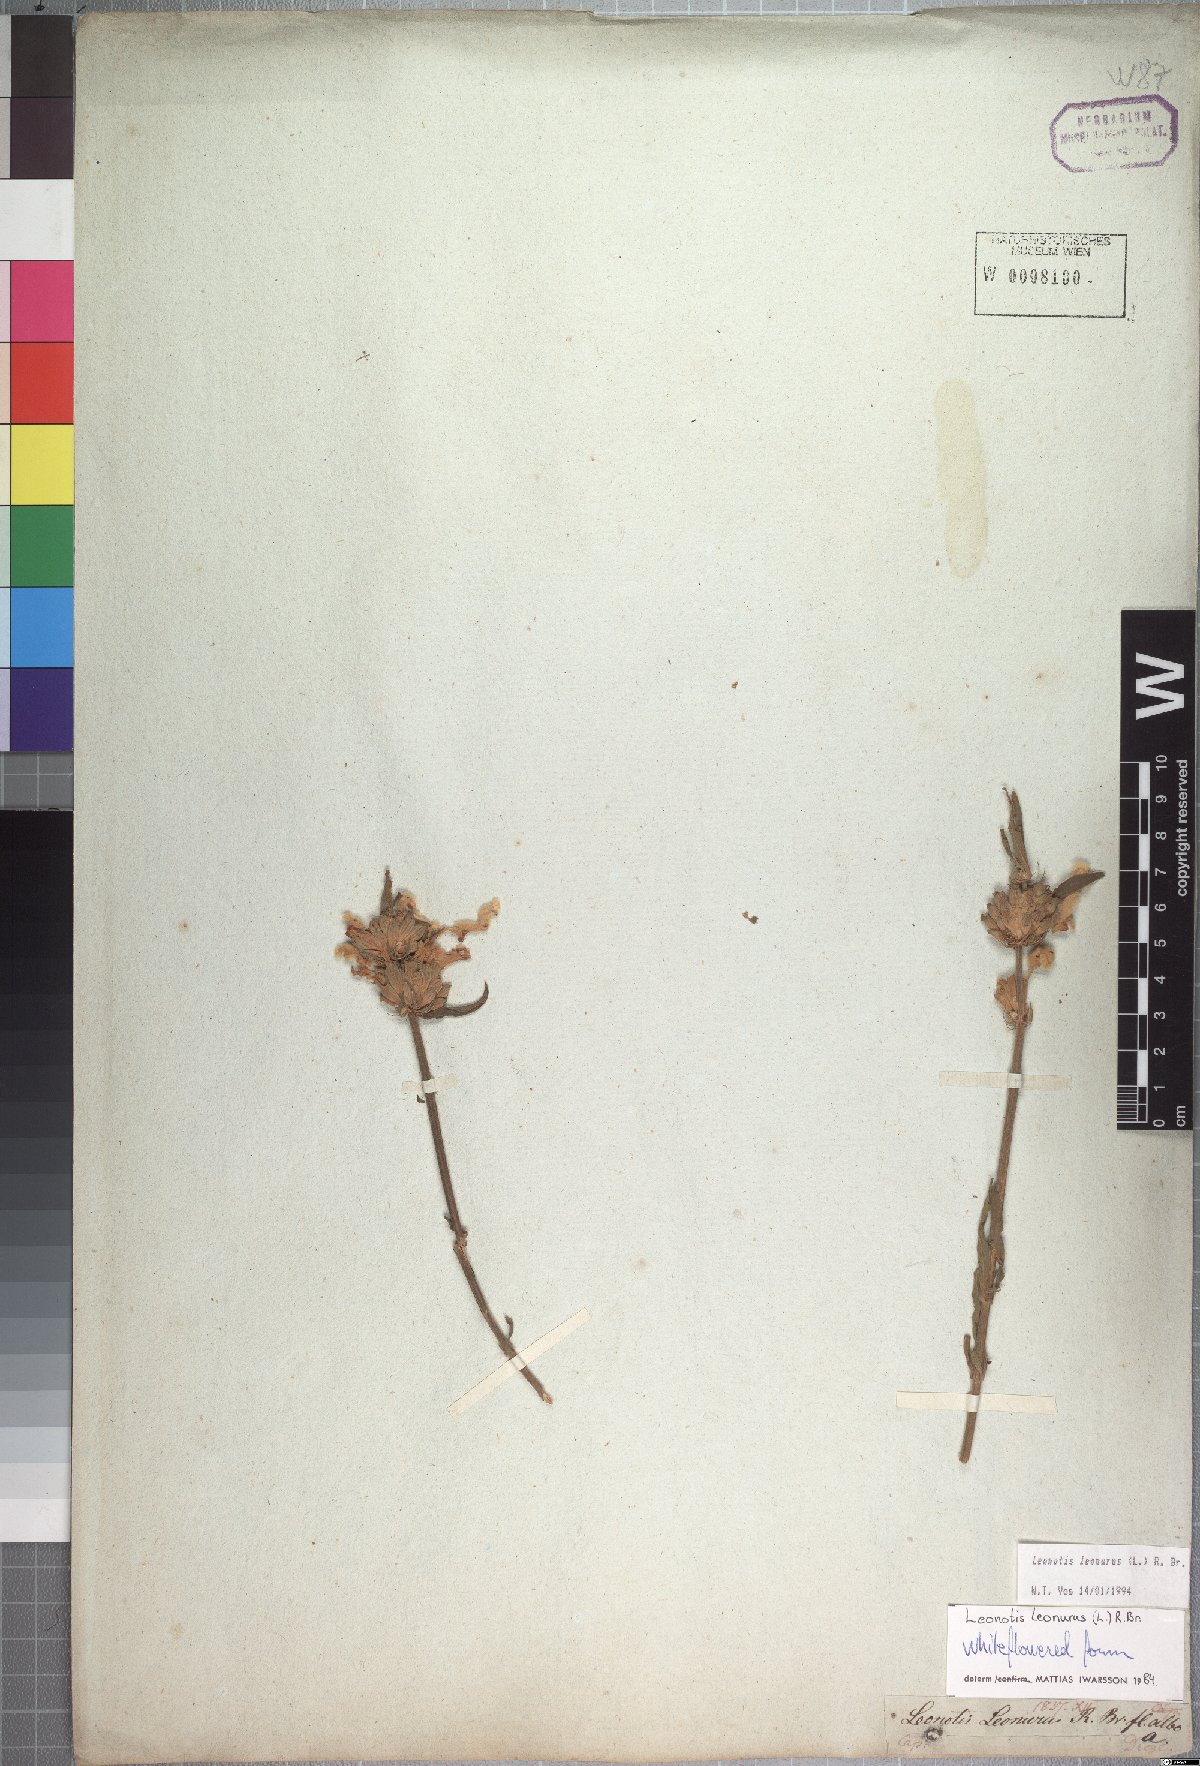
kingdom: Plantae
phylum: Tracheophyta
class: Magnoliopsida
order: Lamiales
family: Lamiaceae
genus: Leonotis
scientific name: Leonotis leonurus
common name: Lion's ear
